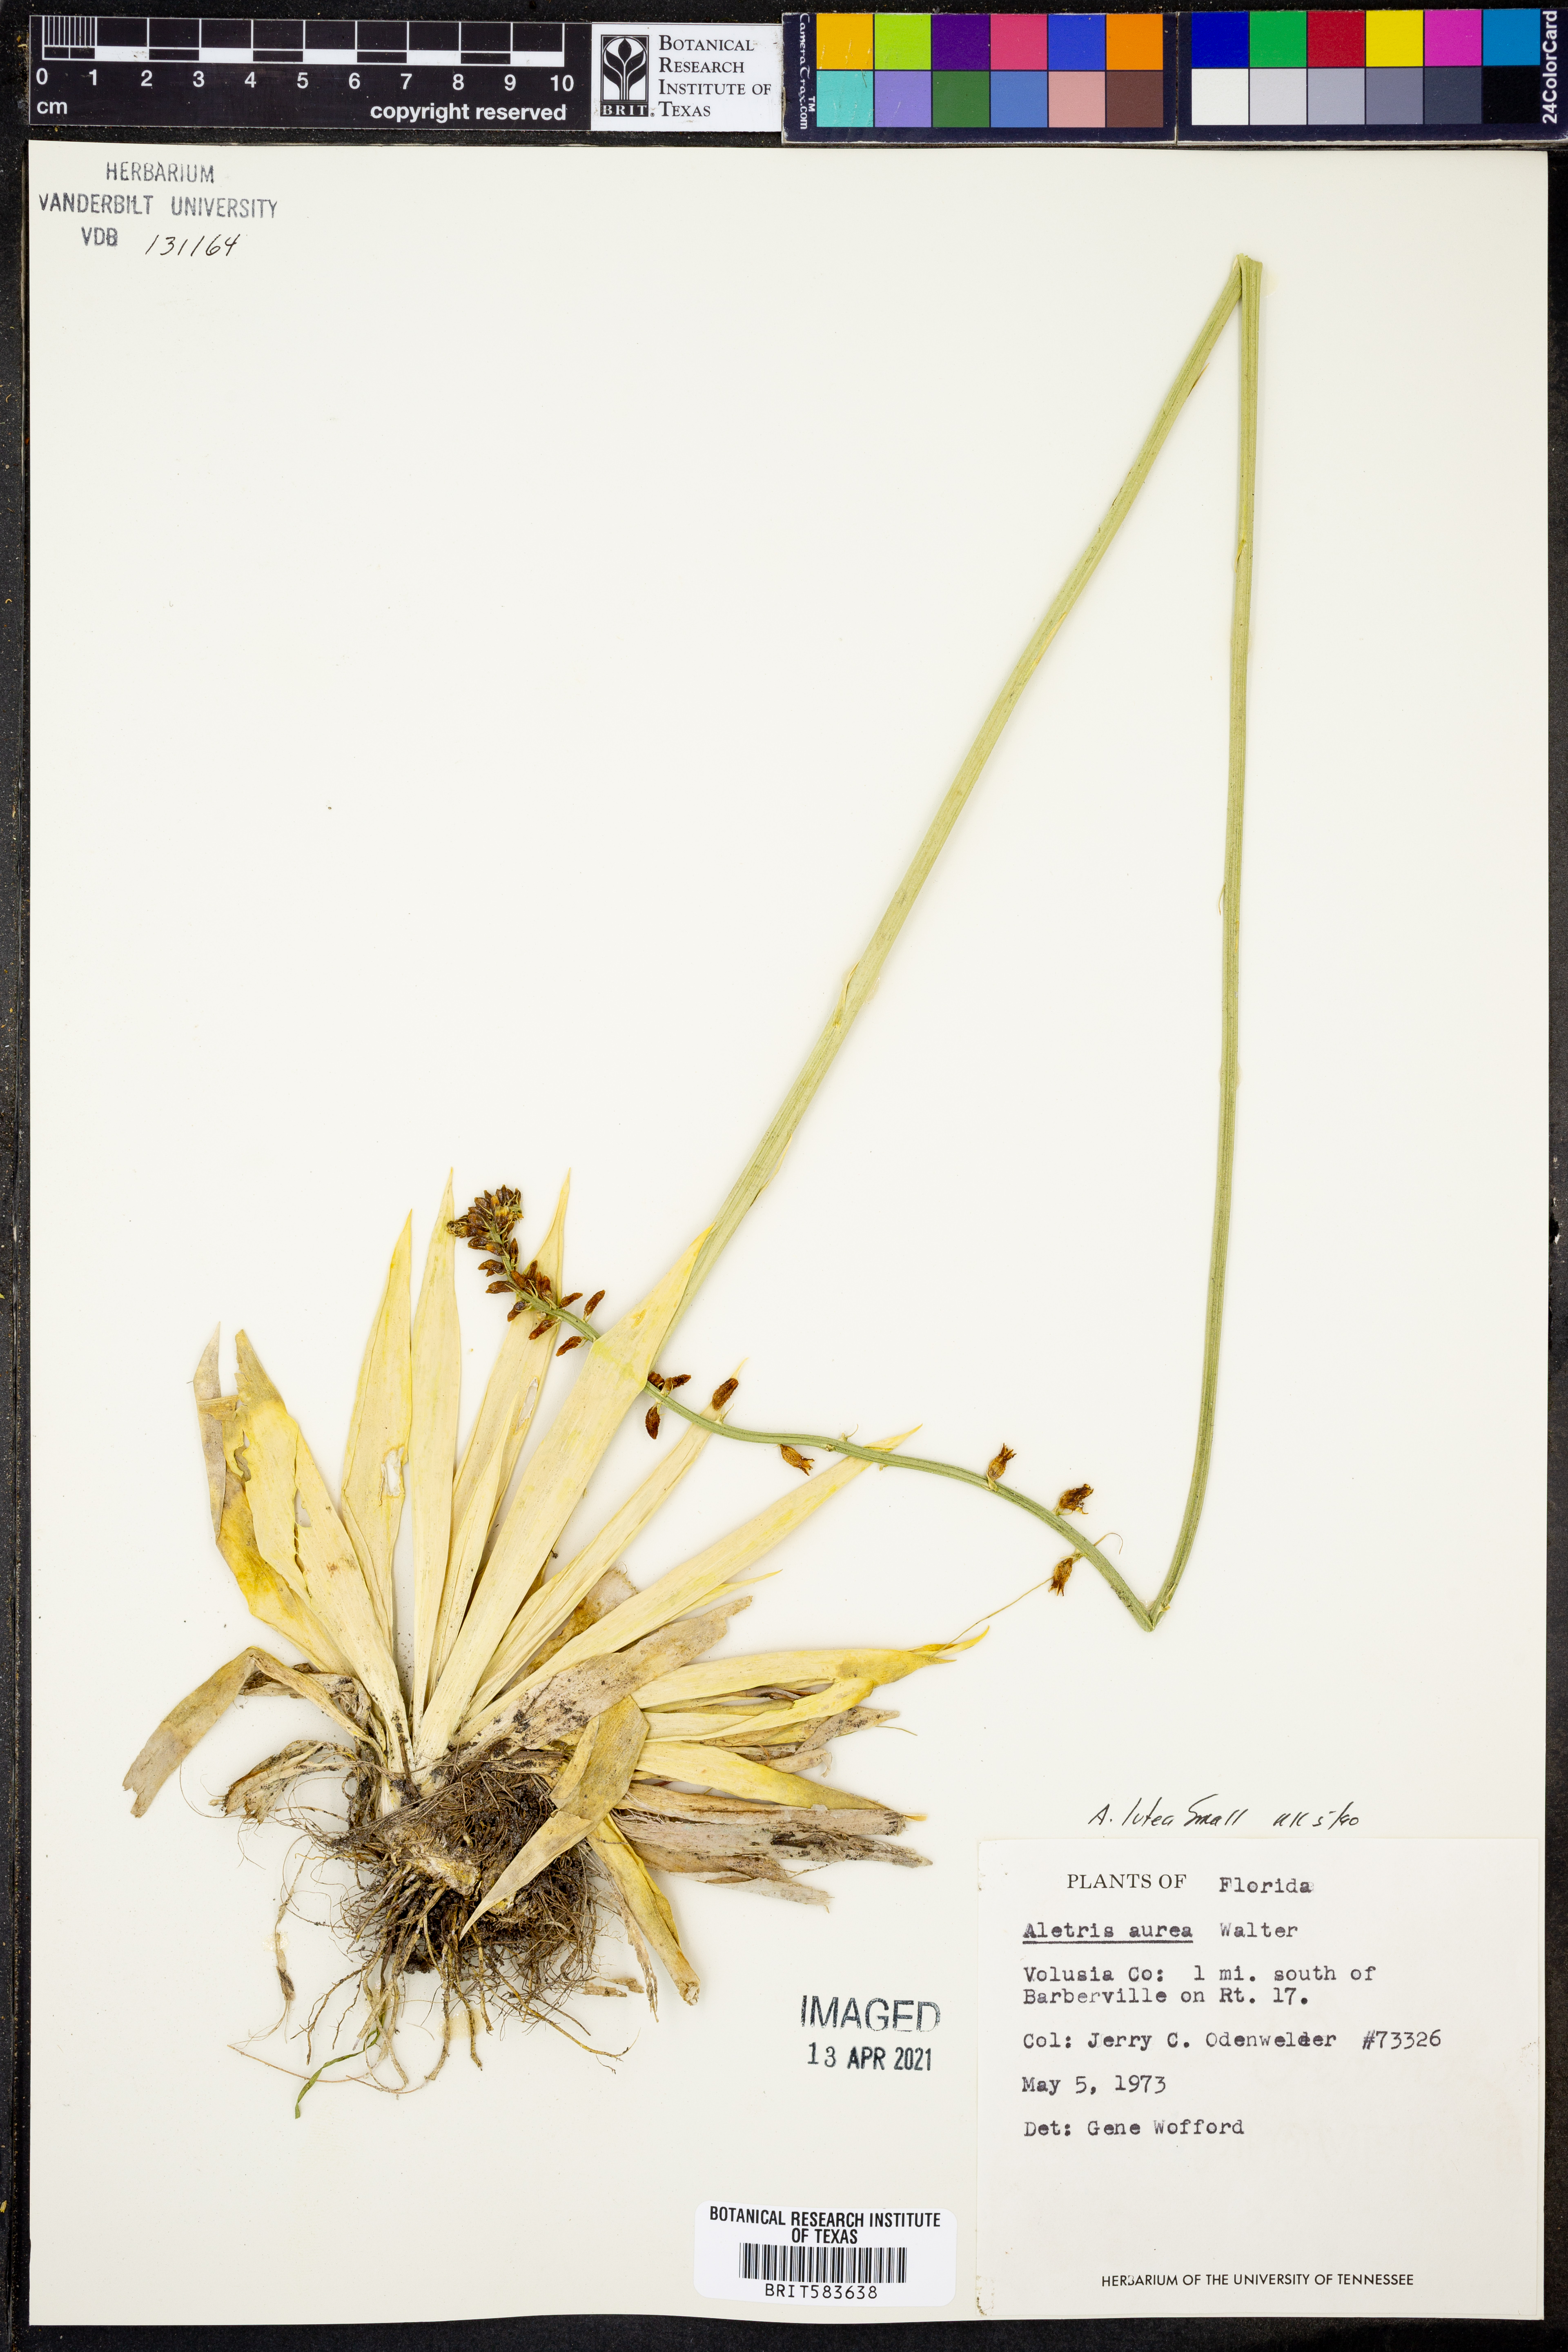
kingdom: Plantae
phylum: Tracheophyta
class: Liliopsida
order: Dioscoreales
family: Nartheciaceae
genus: Aletris
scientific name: Aletris aurea
